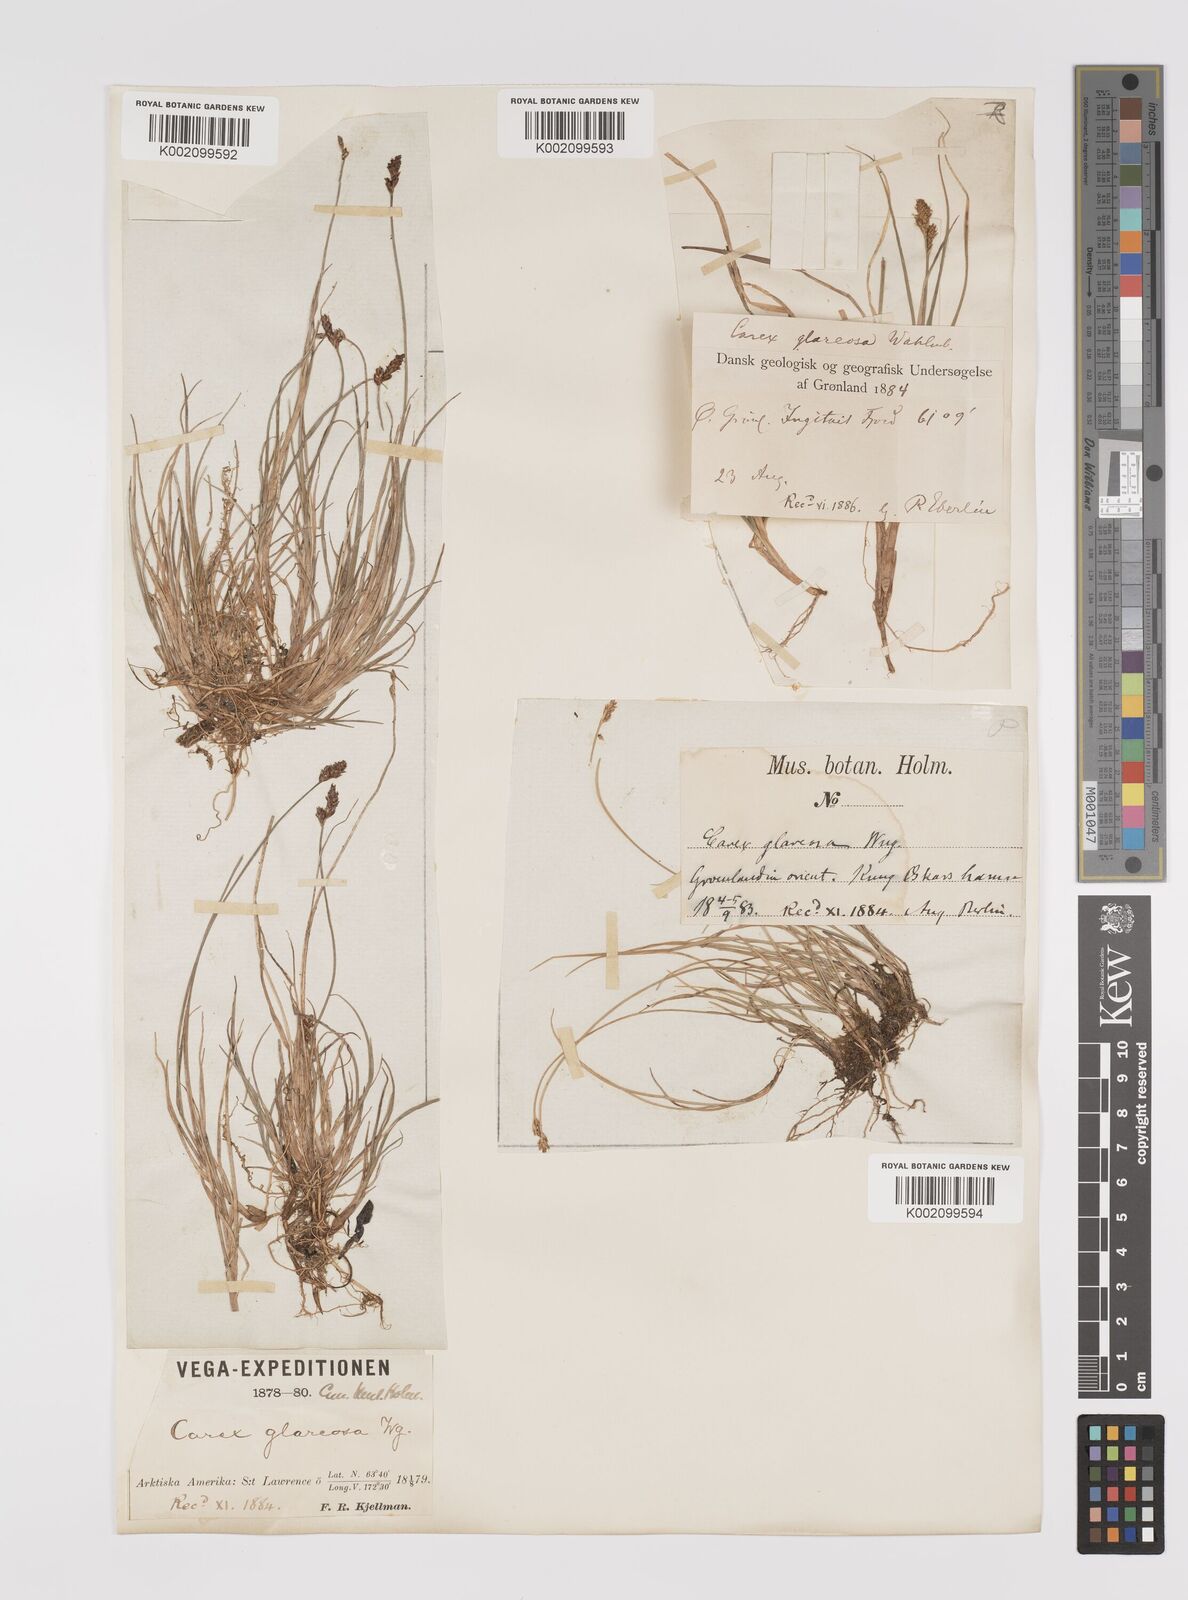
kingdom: Plantae
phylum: Tracheophyta
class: Liliopsida
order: Poales
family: Cyperaceae
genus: Carex
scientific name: Carex glareosa
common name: Clustered sedge
